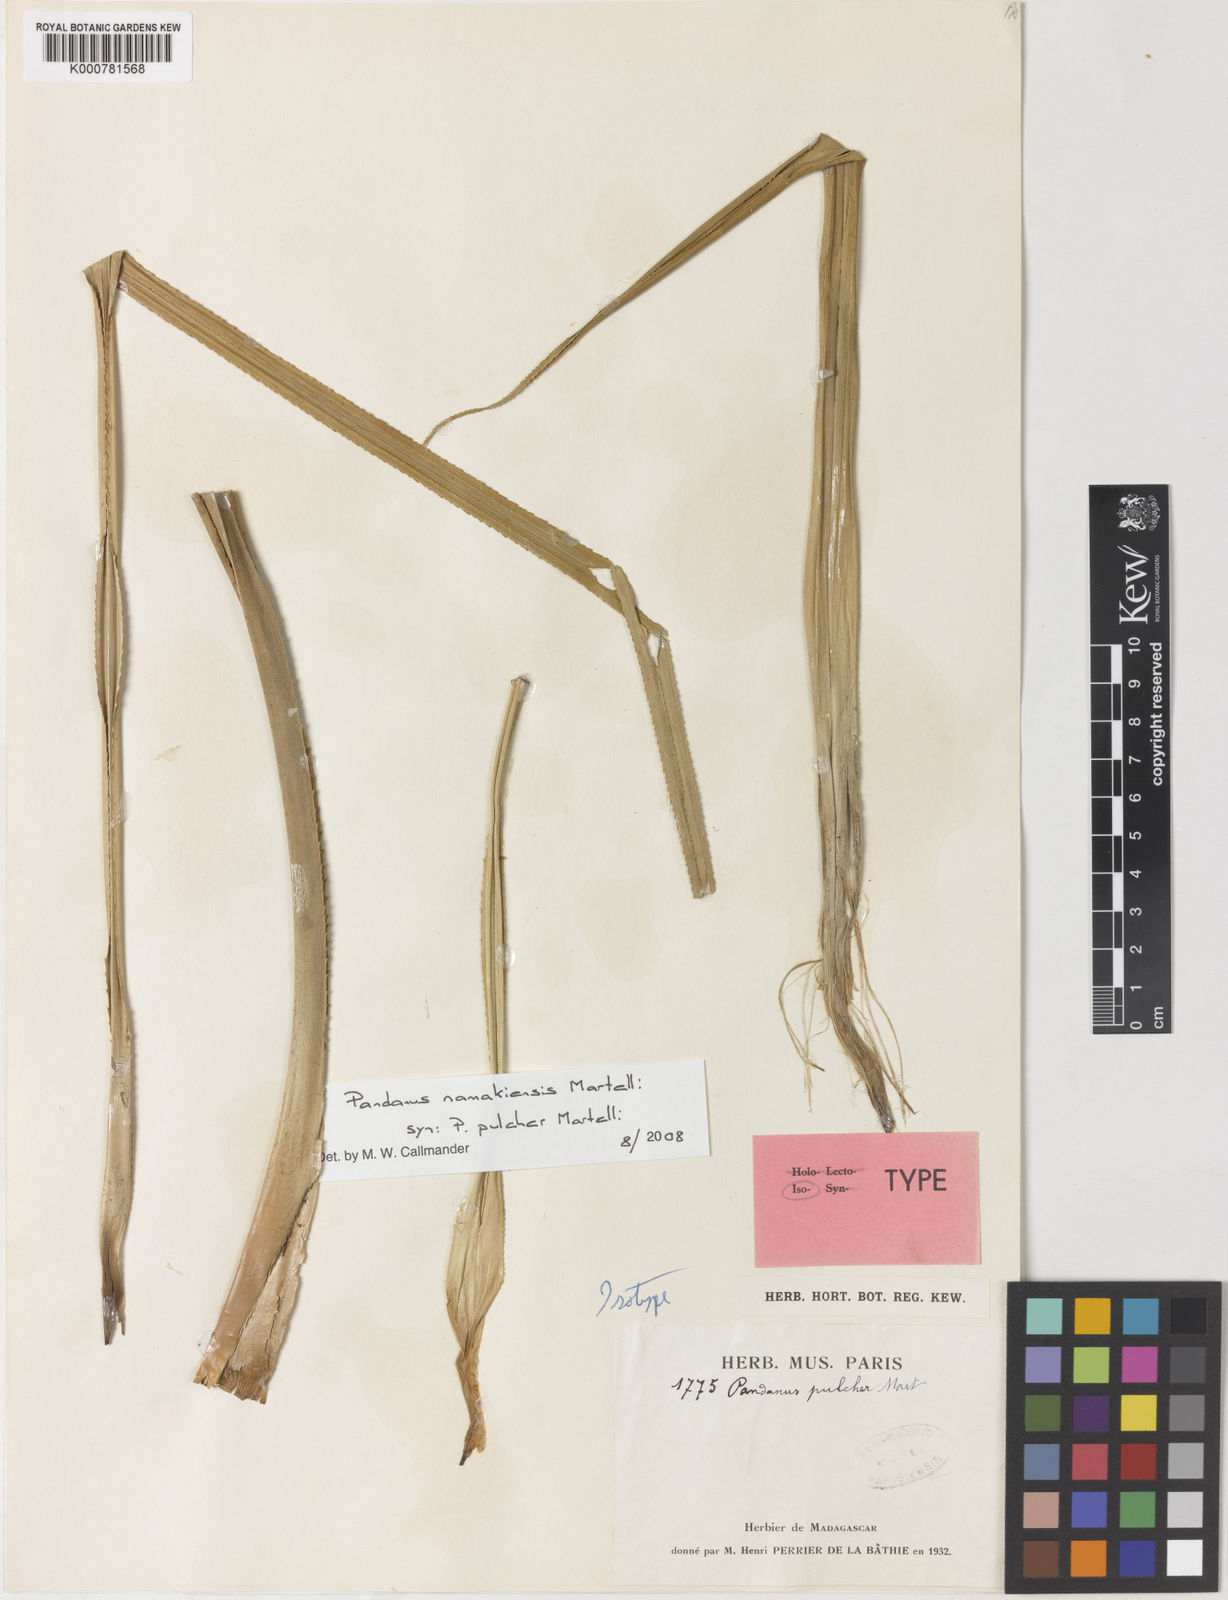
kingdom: Plantae
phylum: Tracheophyta
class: Liliopsida
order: Pandanales
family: Pandanaceae
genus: Pandanus
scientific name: Pandanus namakiensis
